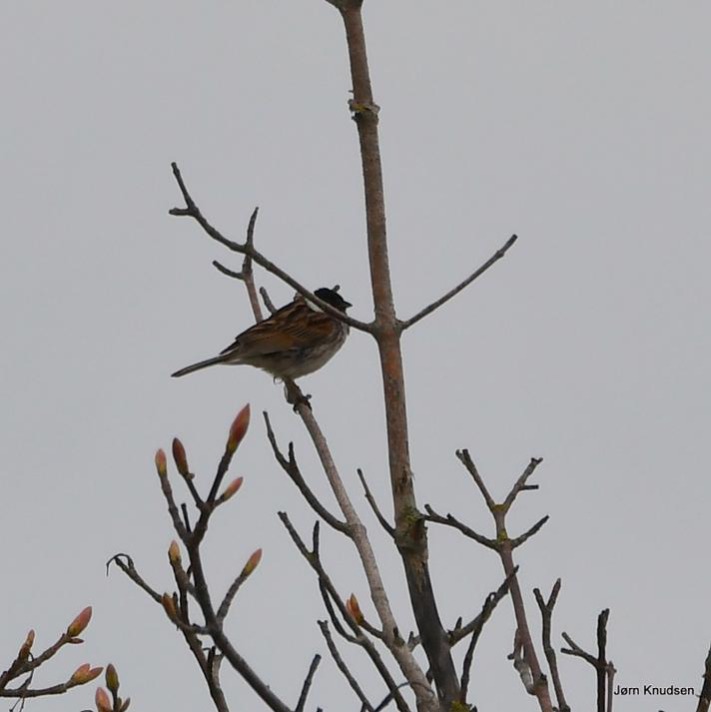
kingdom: Animalia
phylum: Chordata
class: Aves
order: Passeriformes
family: Emberizidae
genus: Emberiza
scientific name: Emberiza schoeniclus
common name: Rørspurv
